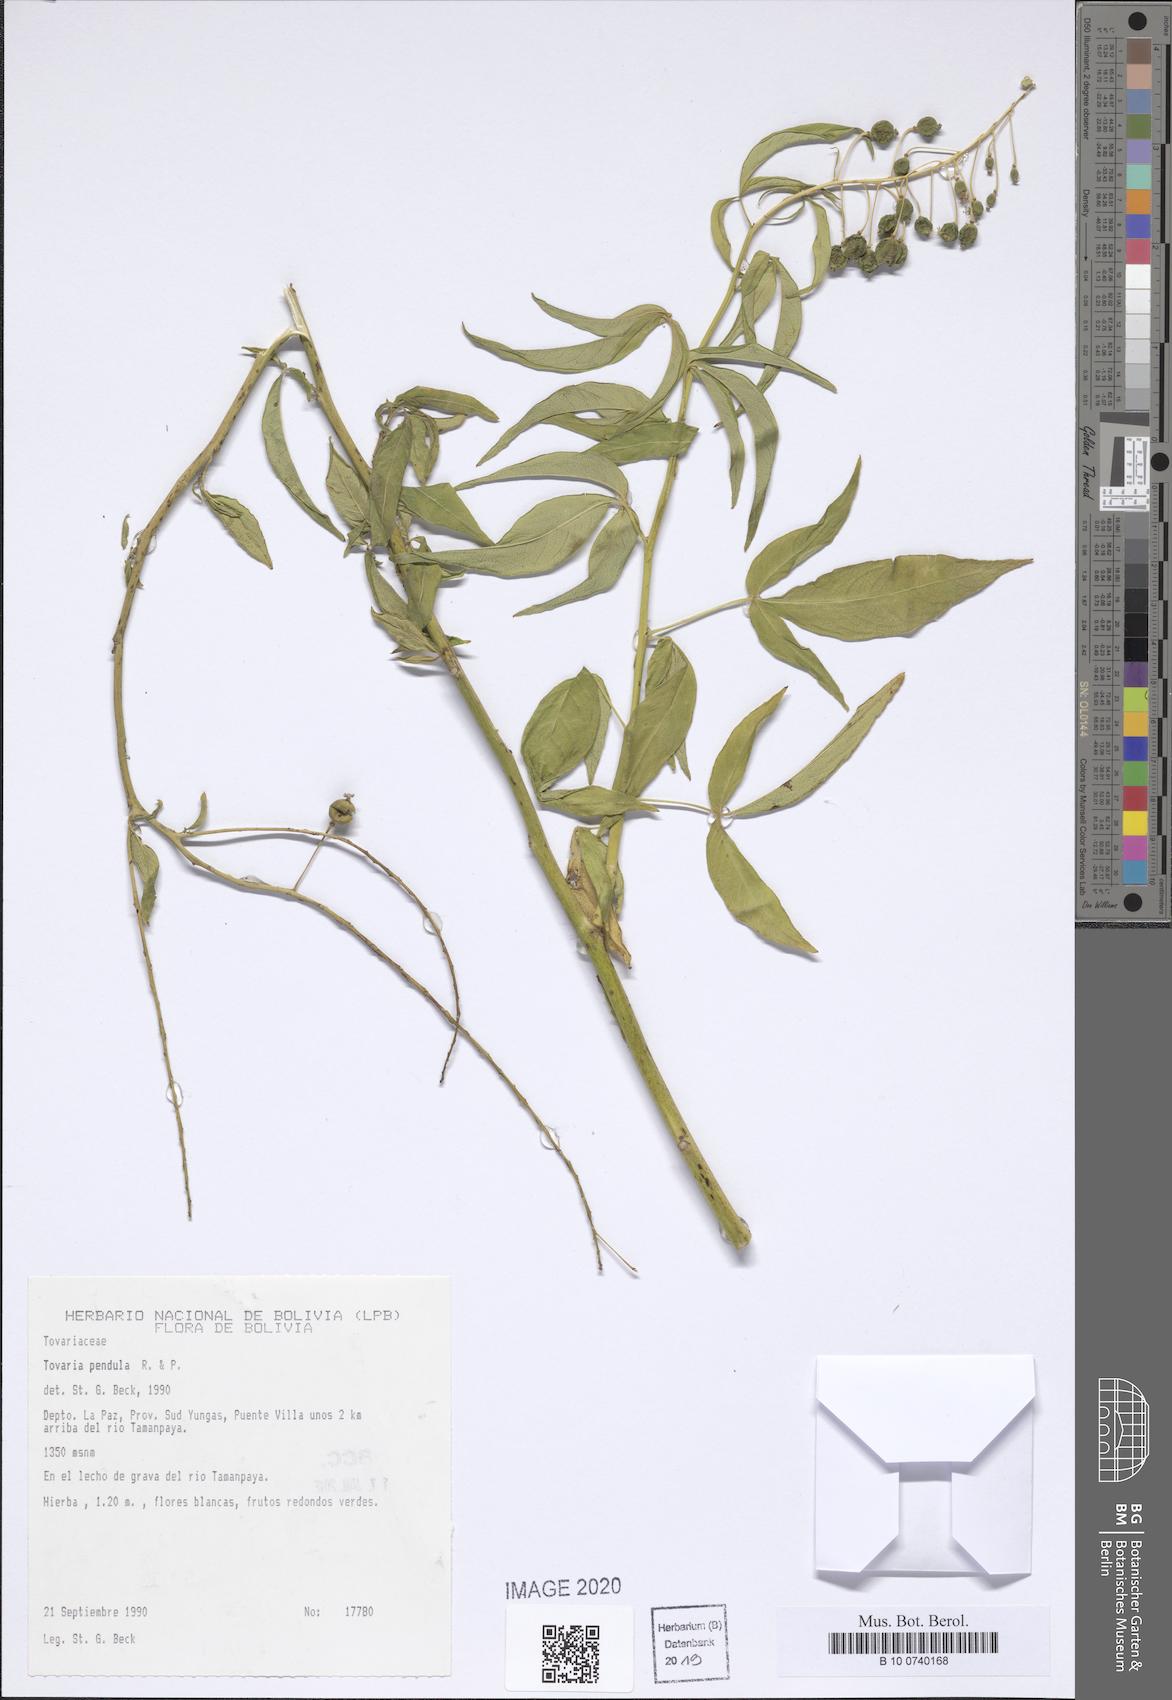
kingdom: Plantae
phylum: Tracheophyta
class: Magnoliopsida
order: Brassicales
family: Tovariaceae
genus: Tovaria
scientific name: Tovaria pendula
